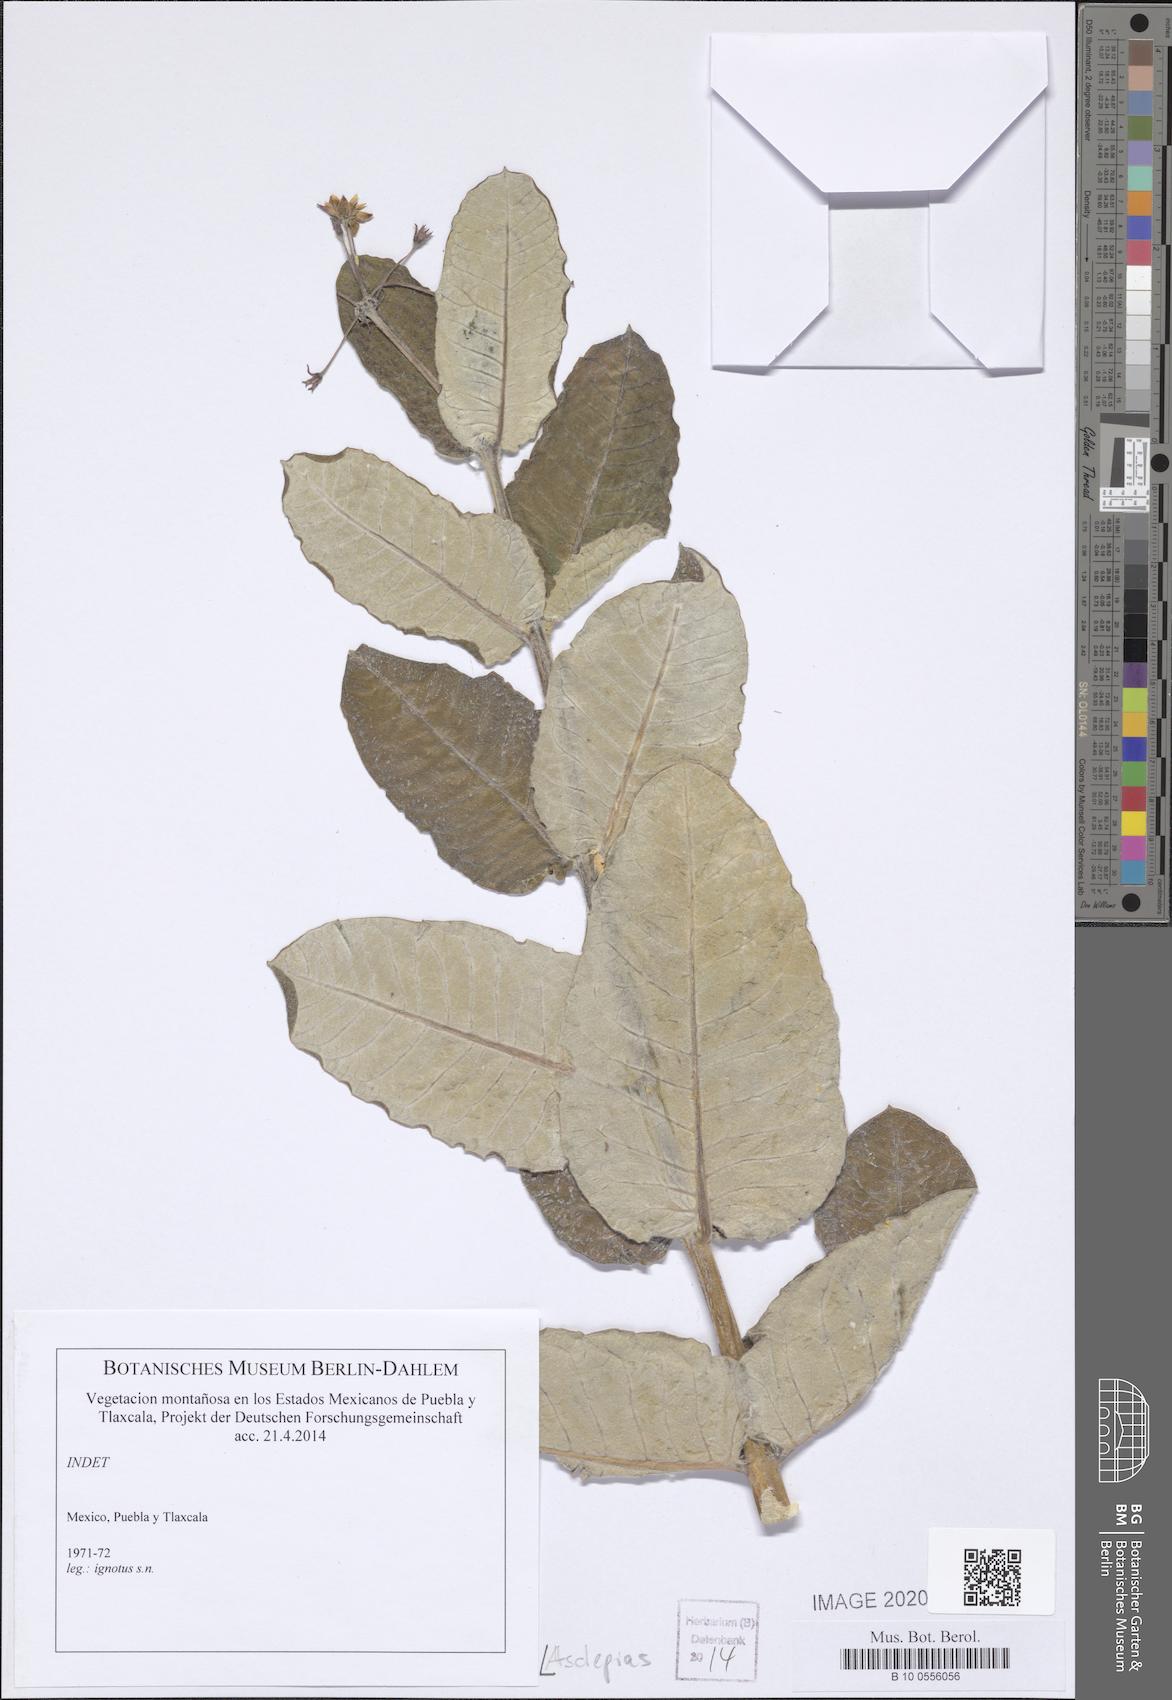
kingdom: Plantae
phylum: Tracheophyta
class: Magnoliopsida
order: Gentianales
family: Apocynaceae
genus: Asclepias
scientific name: Asclepias
